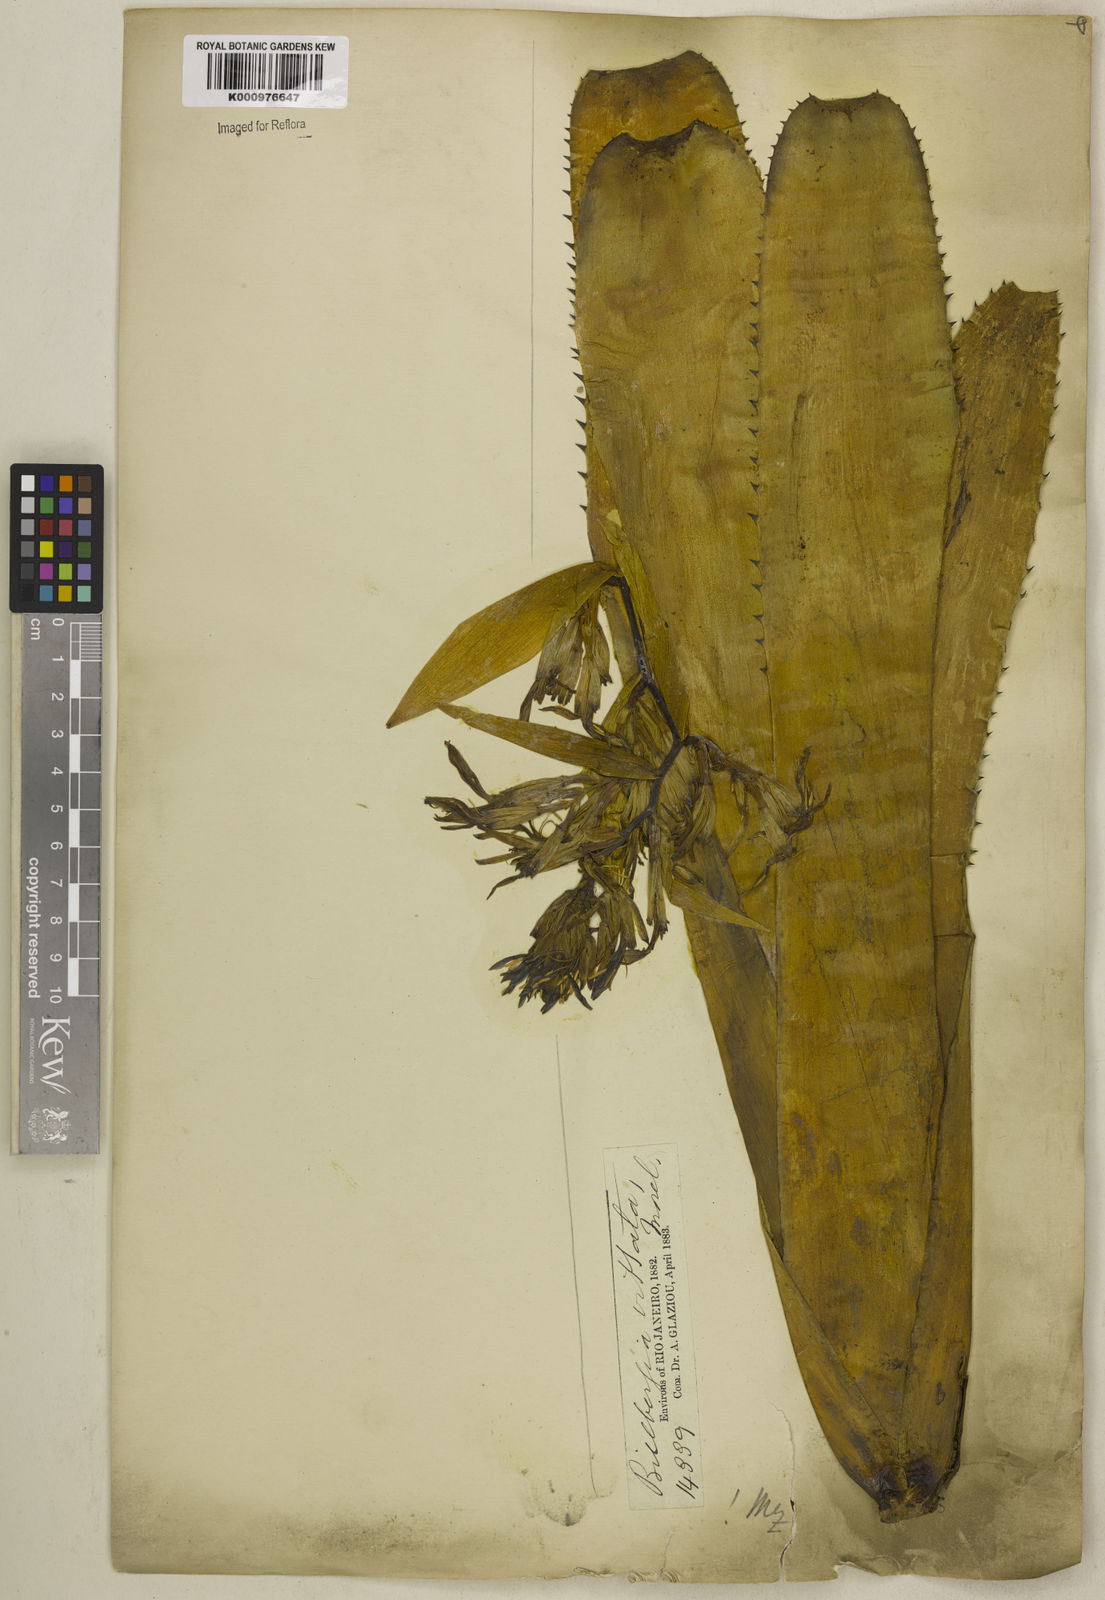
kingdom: Plantae
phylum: Tracheophyta
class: Liliopsida
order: Poales
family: Bromeliaceae
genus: Billbergia
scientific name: Billbergia vittata
